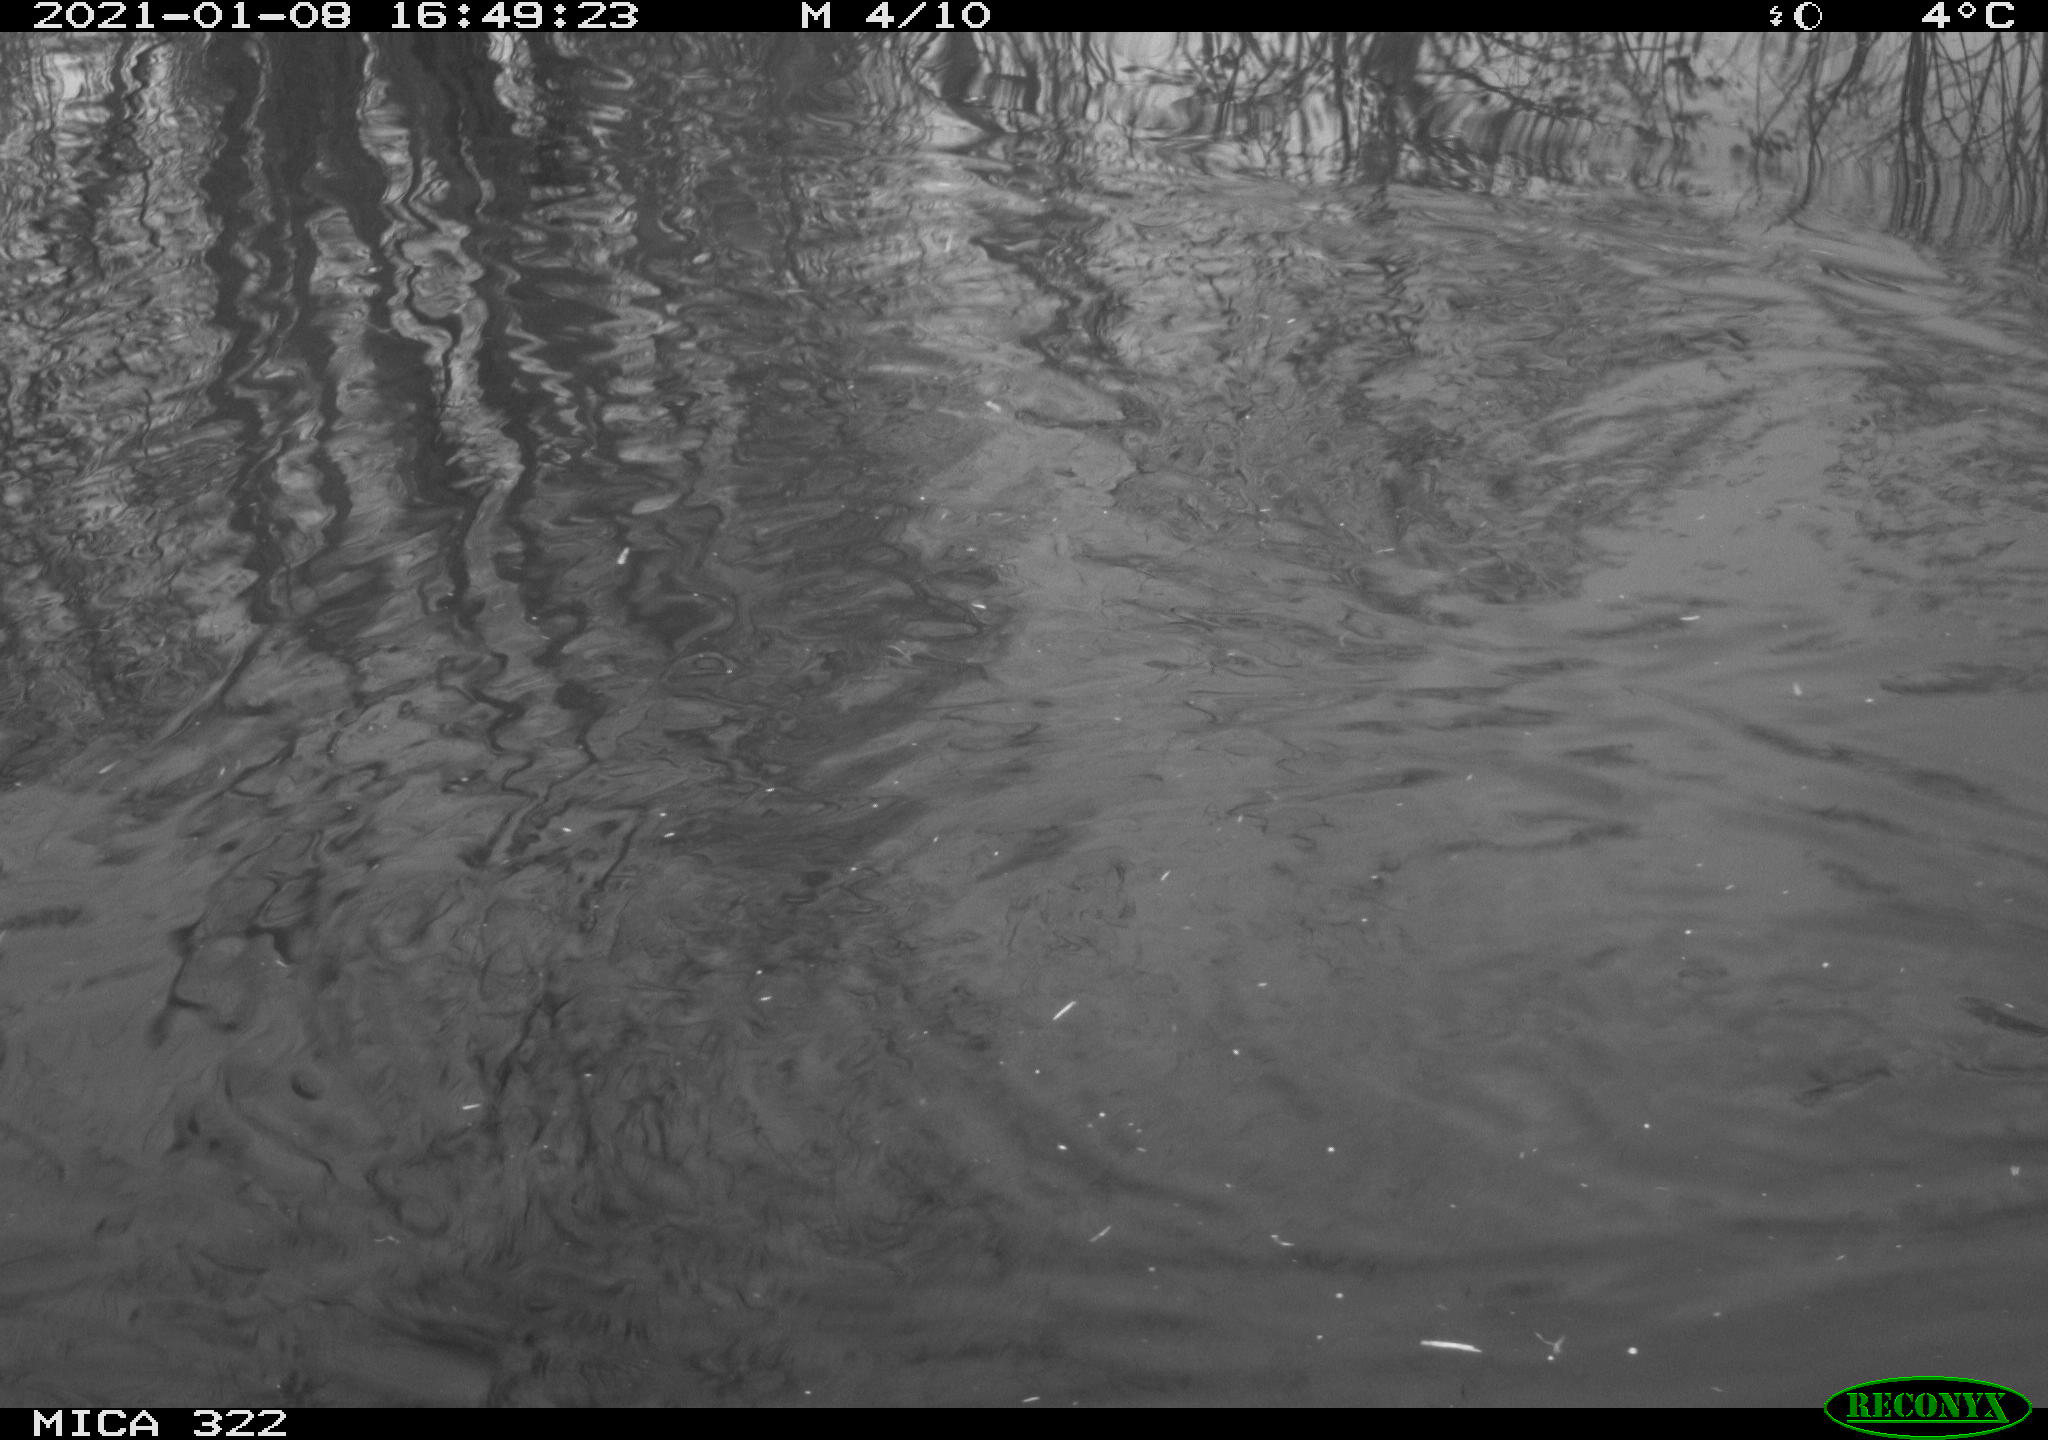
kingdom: Animalia
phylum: Chordata
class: Aves
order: Podicipediformes
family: Podicipedidae
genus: Tachybaptus
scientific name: Tachybaptus ruficollis
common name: Little grebe
